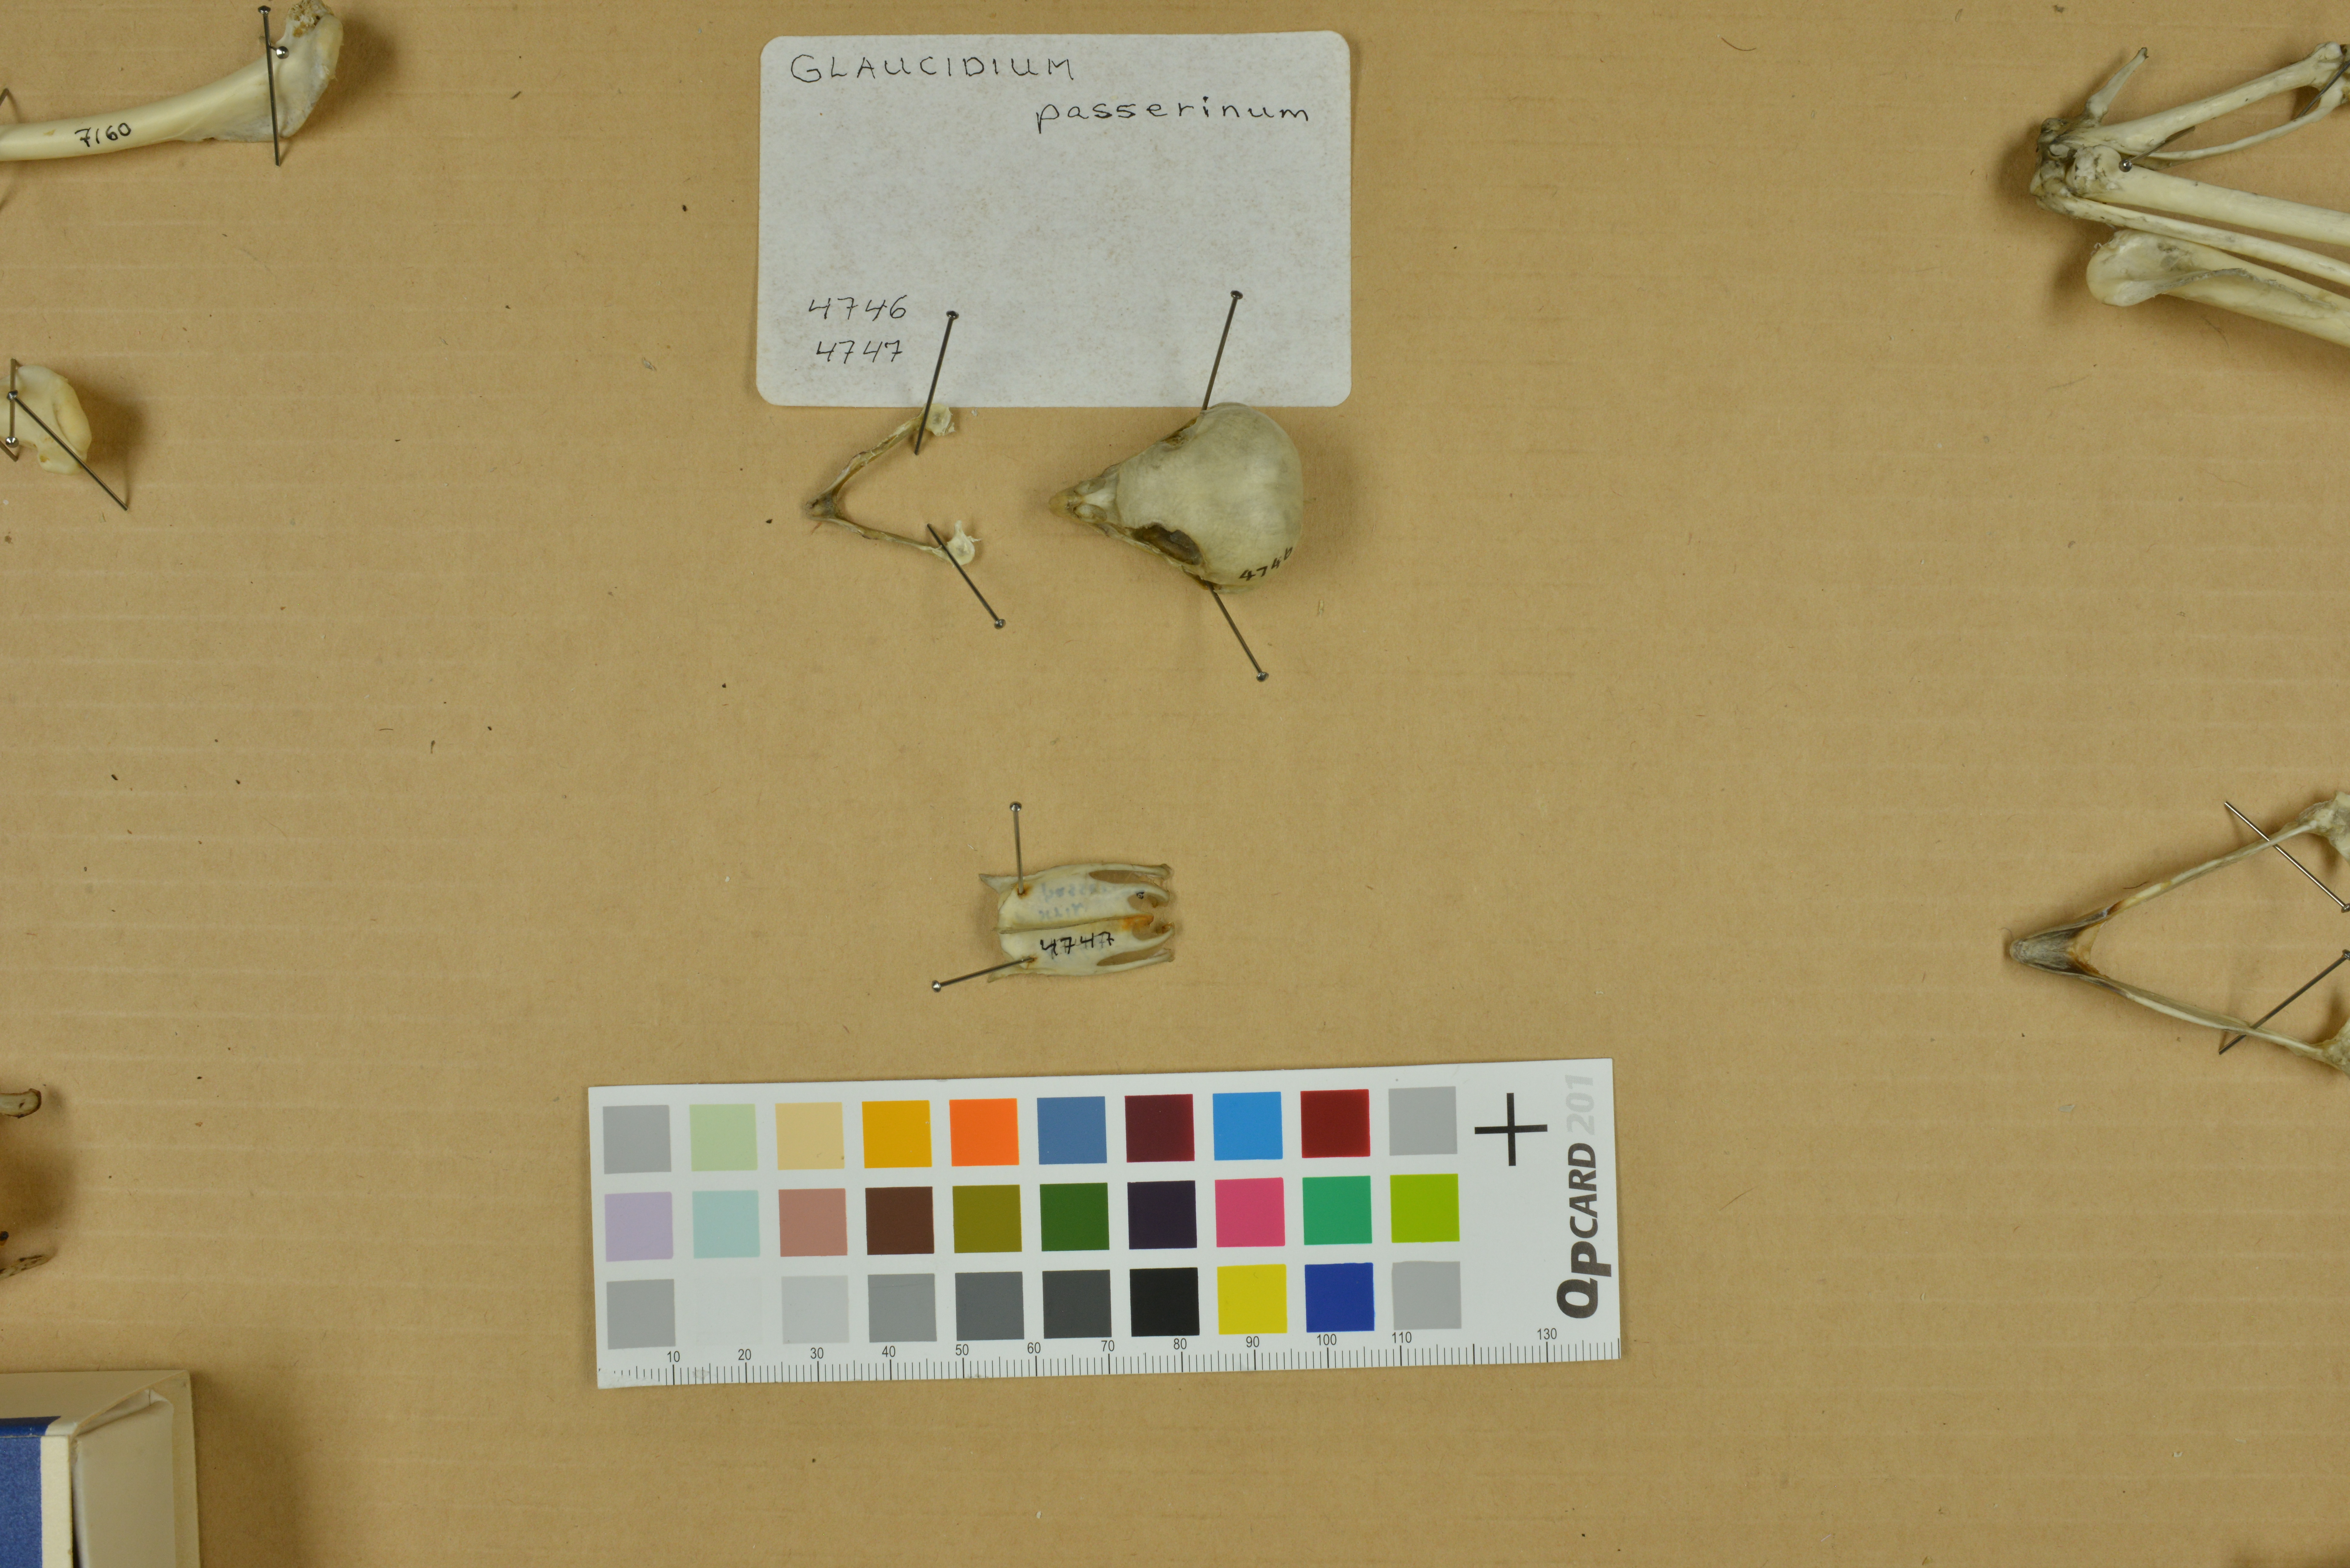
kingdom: Animalia
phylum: Chordata
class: Aves
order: Strigiformes
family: Strigidae
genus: Glaucidium
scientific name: Glaucidium passerinum
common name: Eurasian pygmy owl
